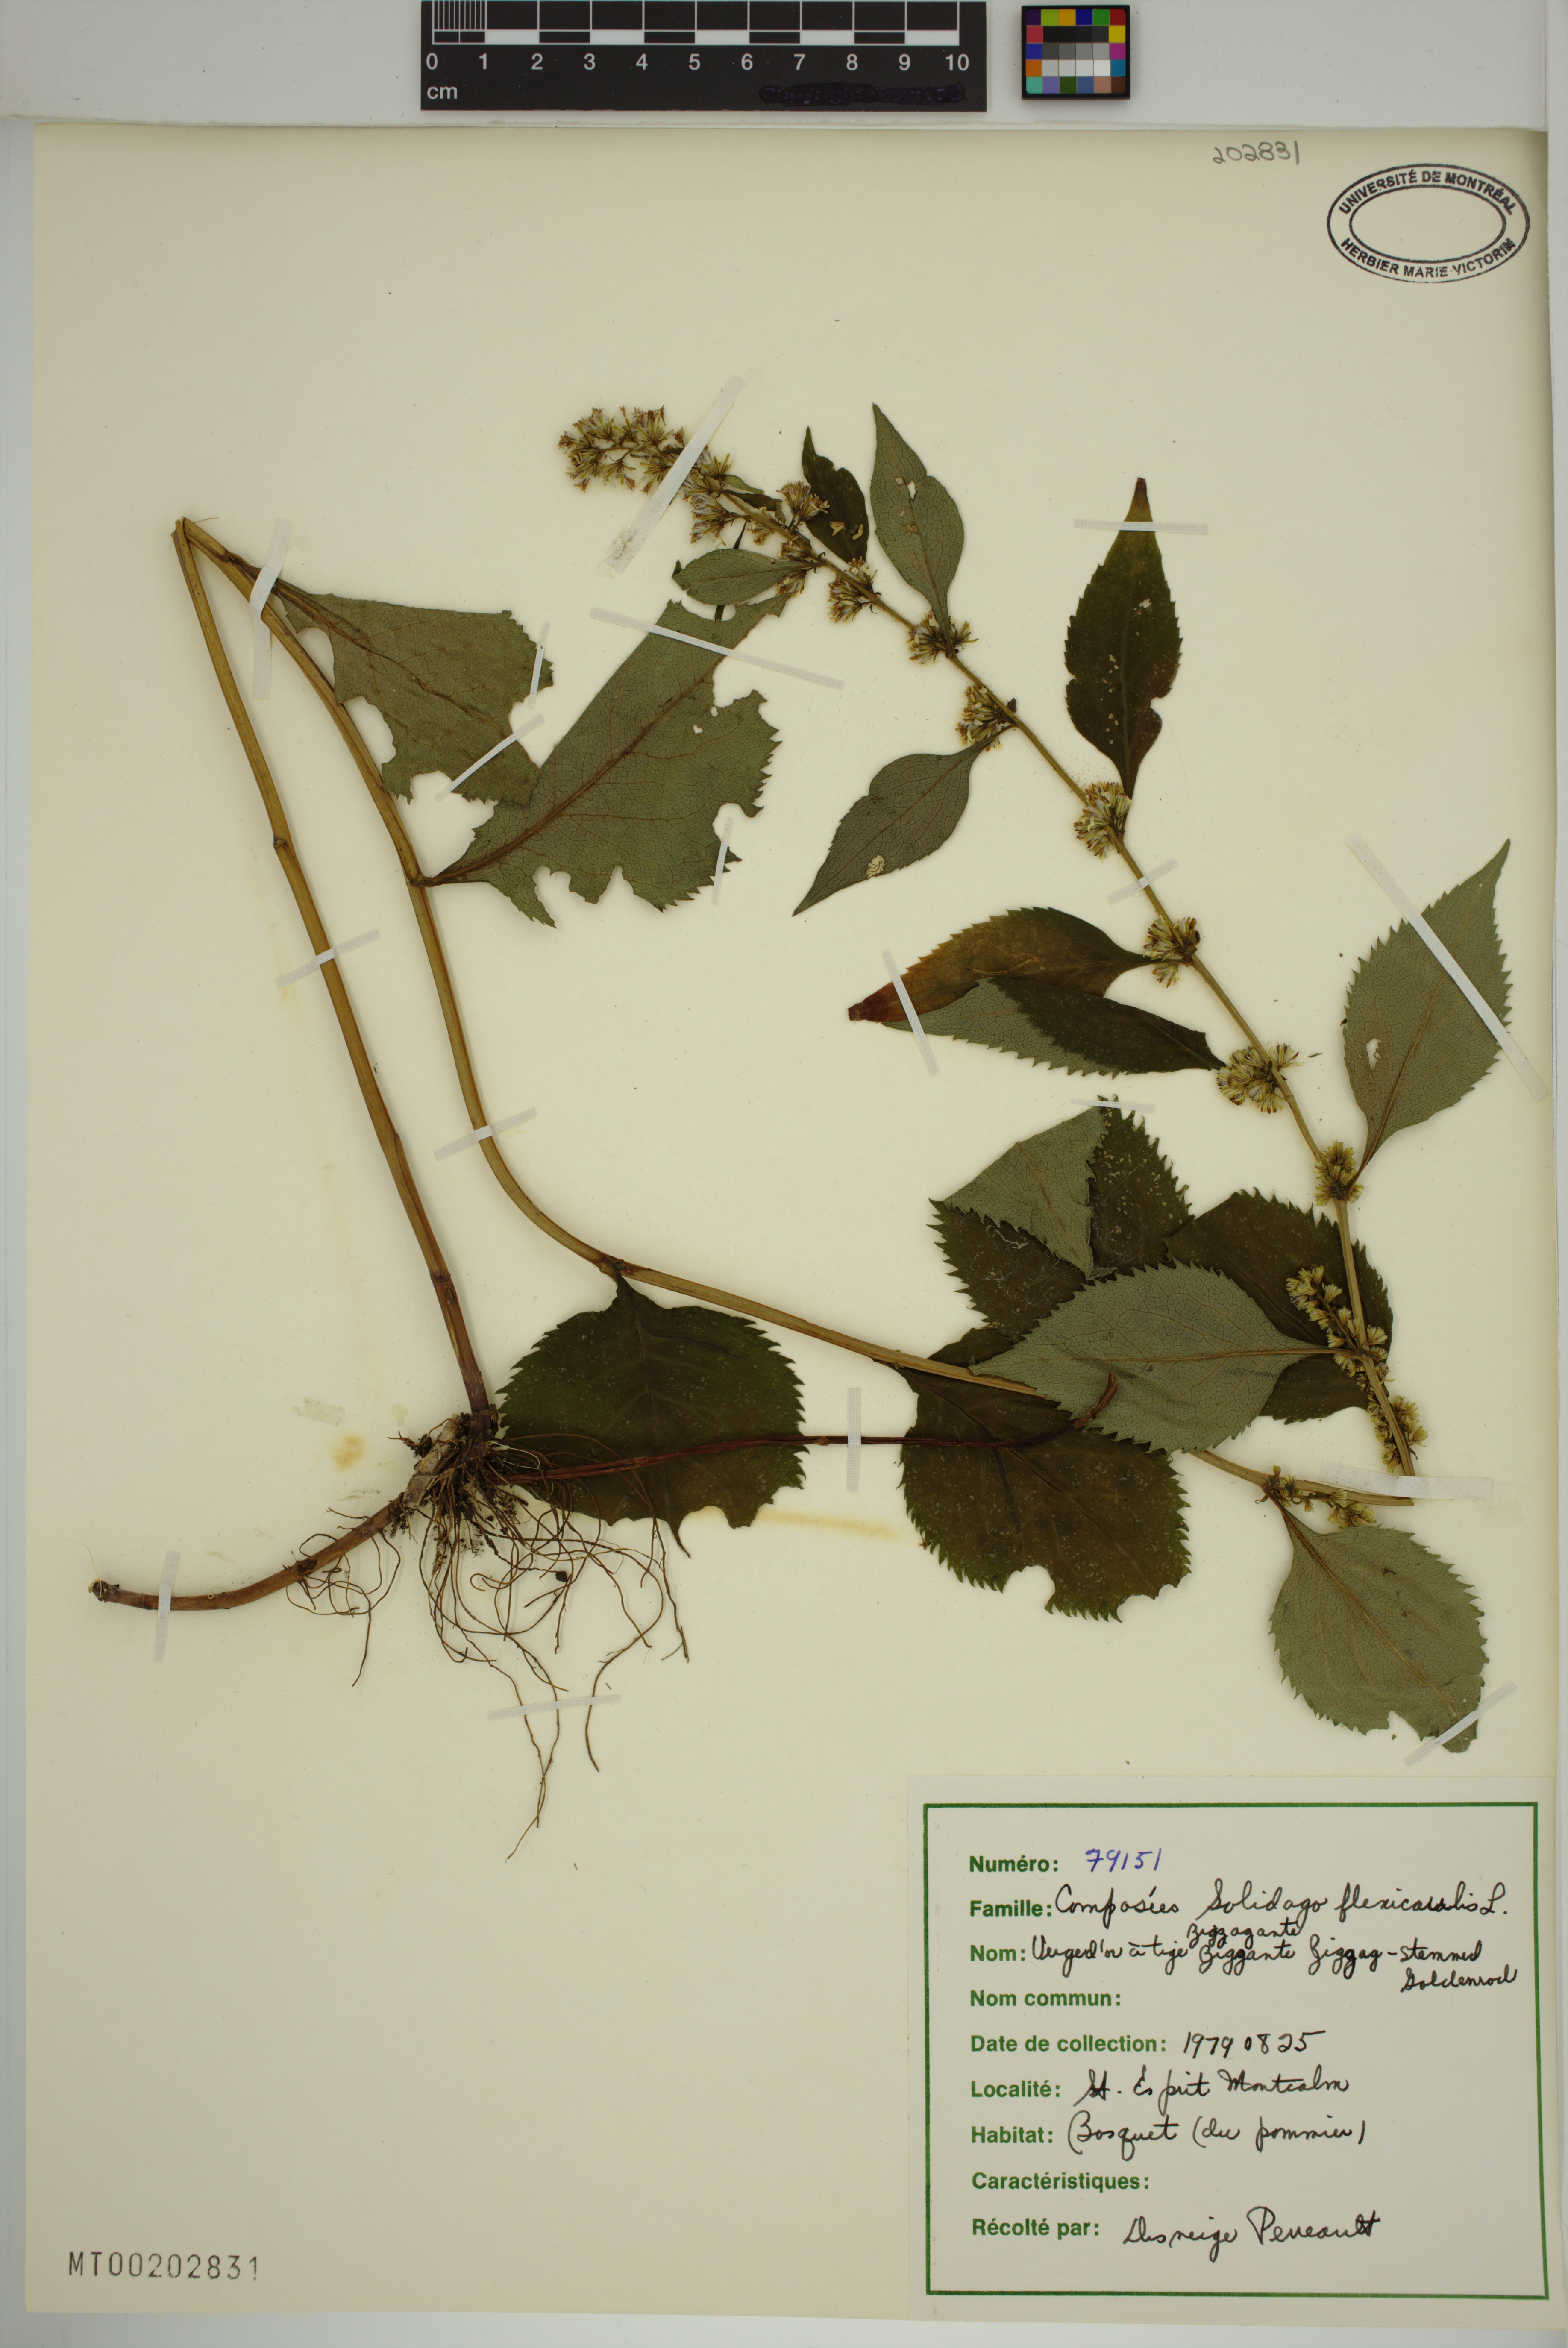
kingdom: Plantae
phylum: Tracheophyta
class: Magnoliopsida
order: Asterales
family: Asteraceae
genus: Solidago
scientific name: Solidago flexicaulis
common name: Zig-zag goldenrod
